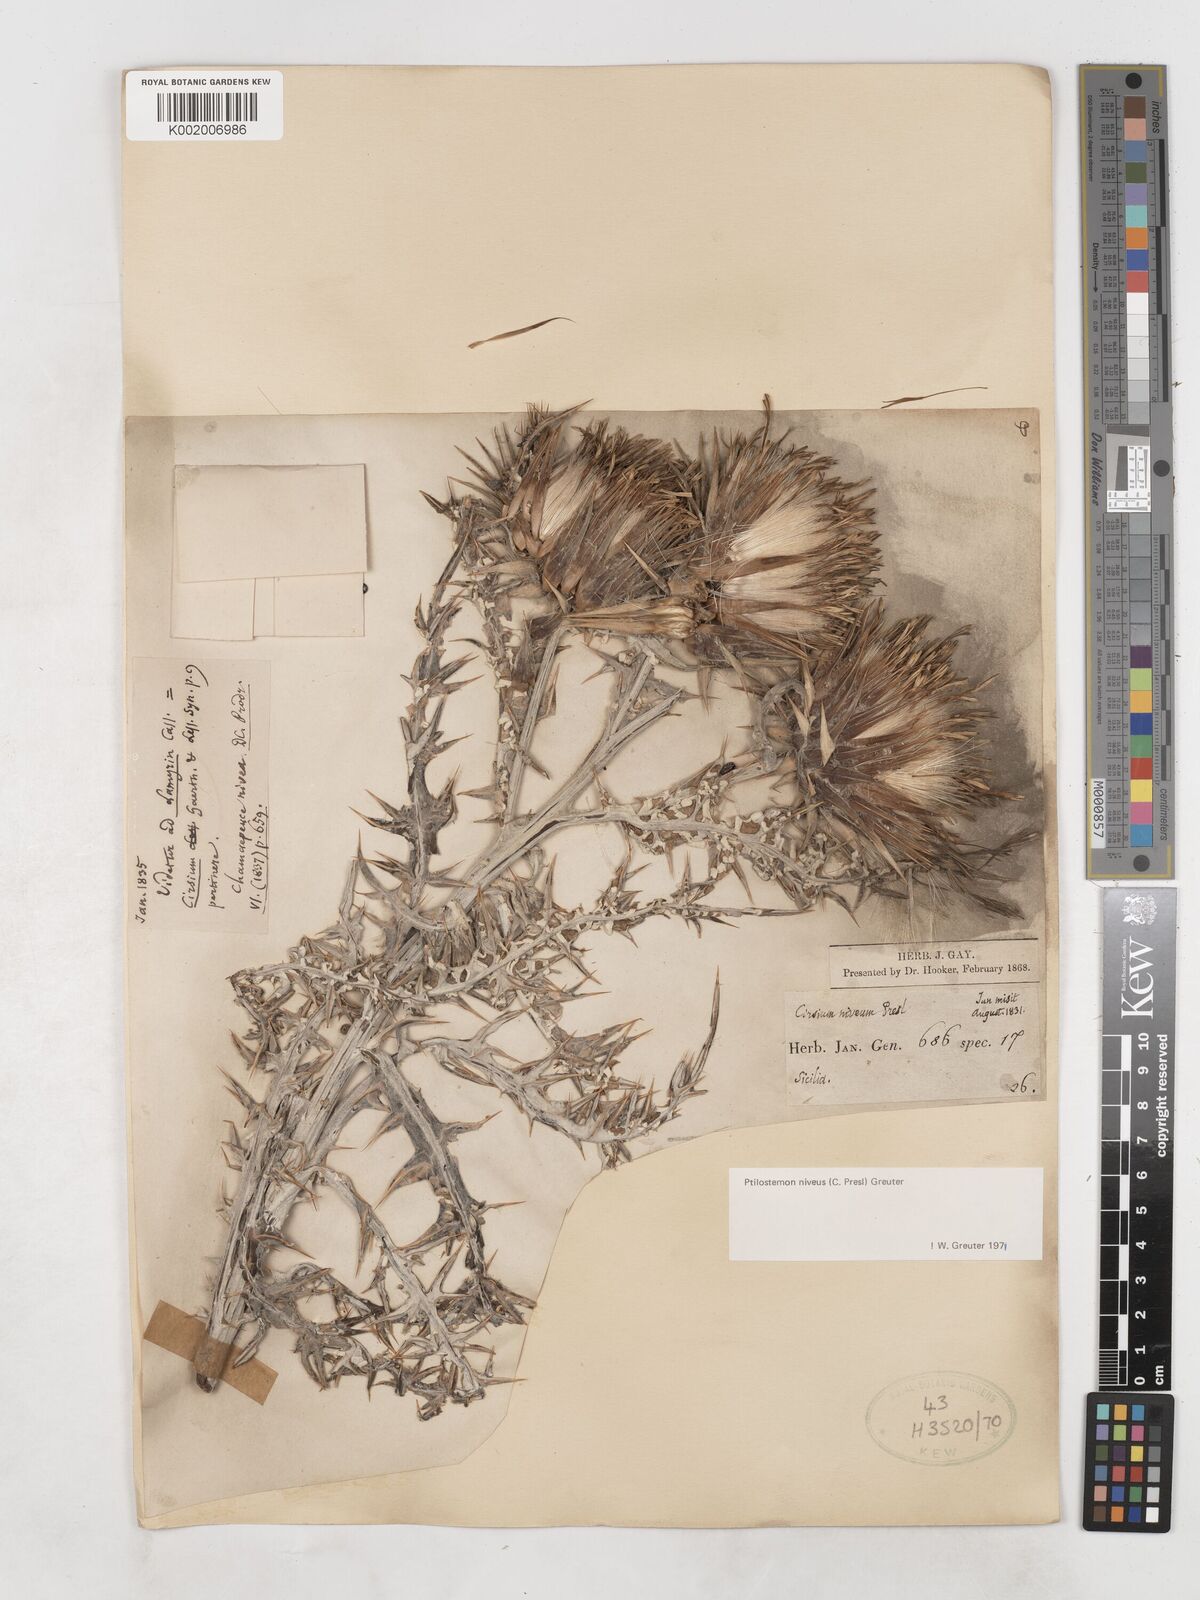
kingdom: Plantae
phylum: Tracheophyta
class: Magnoliopsida
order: Asterales
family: Asteraceae
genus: Ptilostemon
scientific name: Ptilostemon niveus
